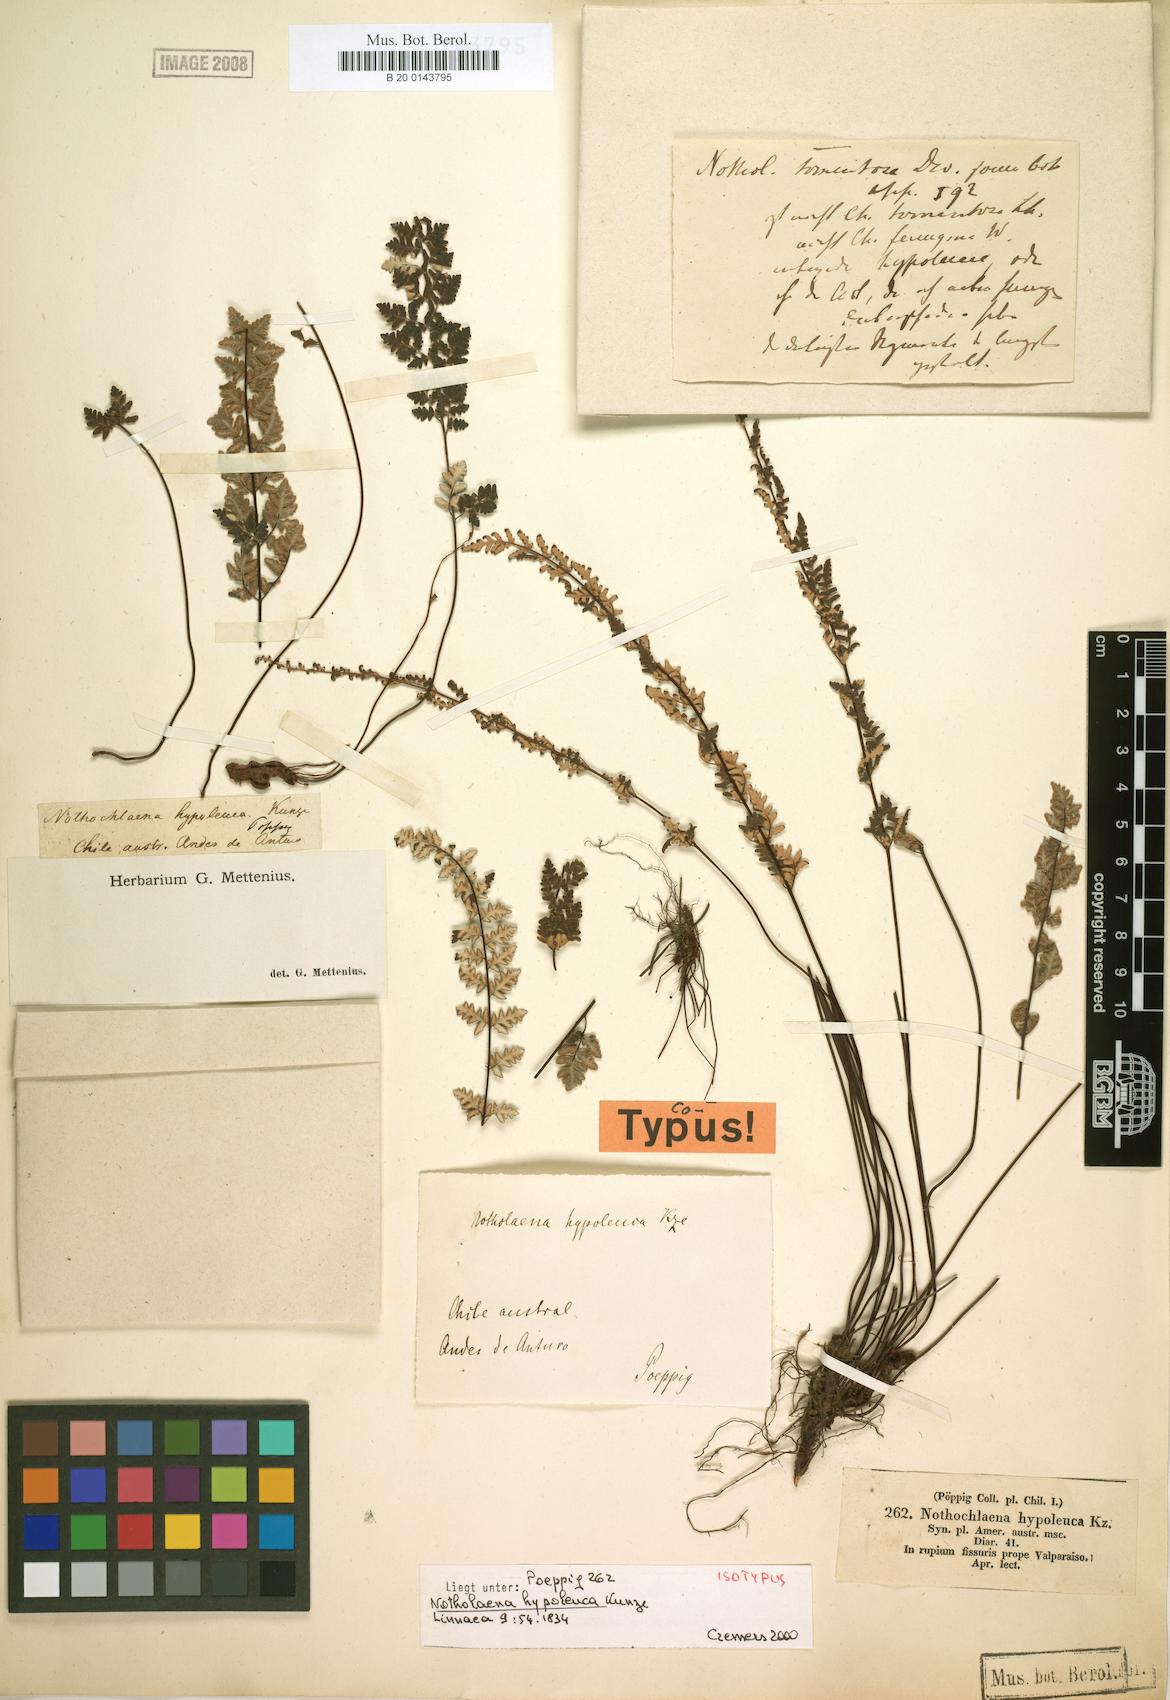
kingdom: Plantae
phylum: Tracheophyta
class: Polypodiopsida
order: Polypodiales
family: Pteridaceae
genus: Cheilanthes
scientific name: Cheilanthes hypoleuca
